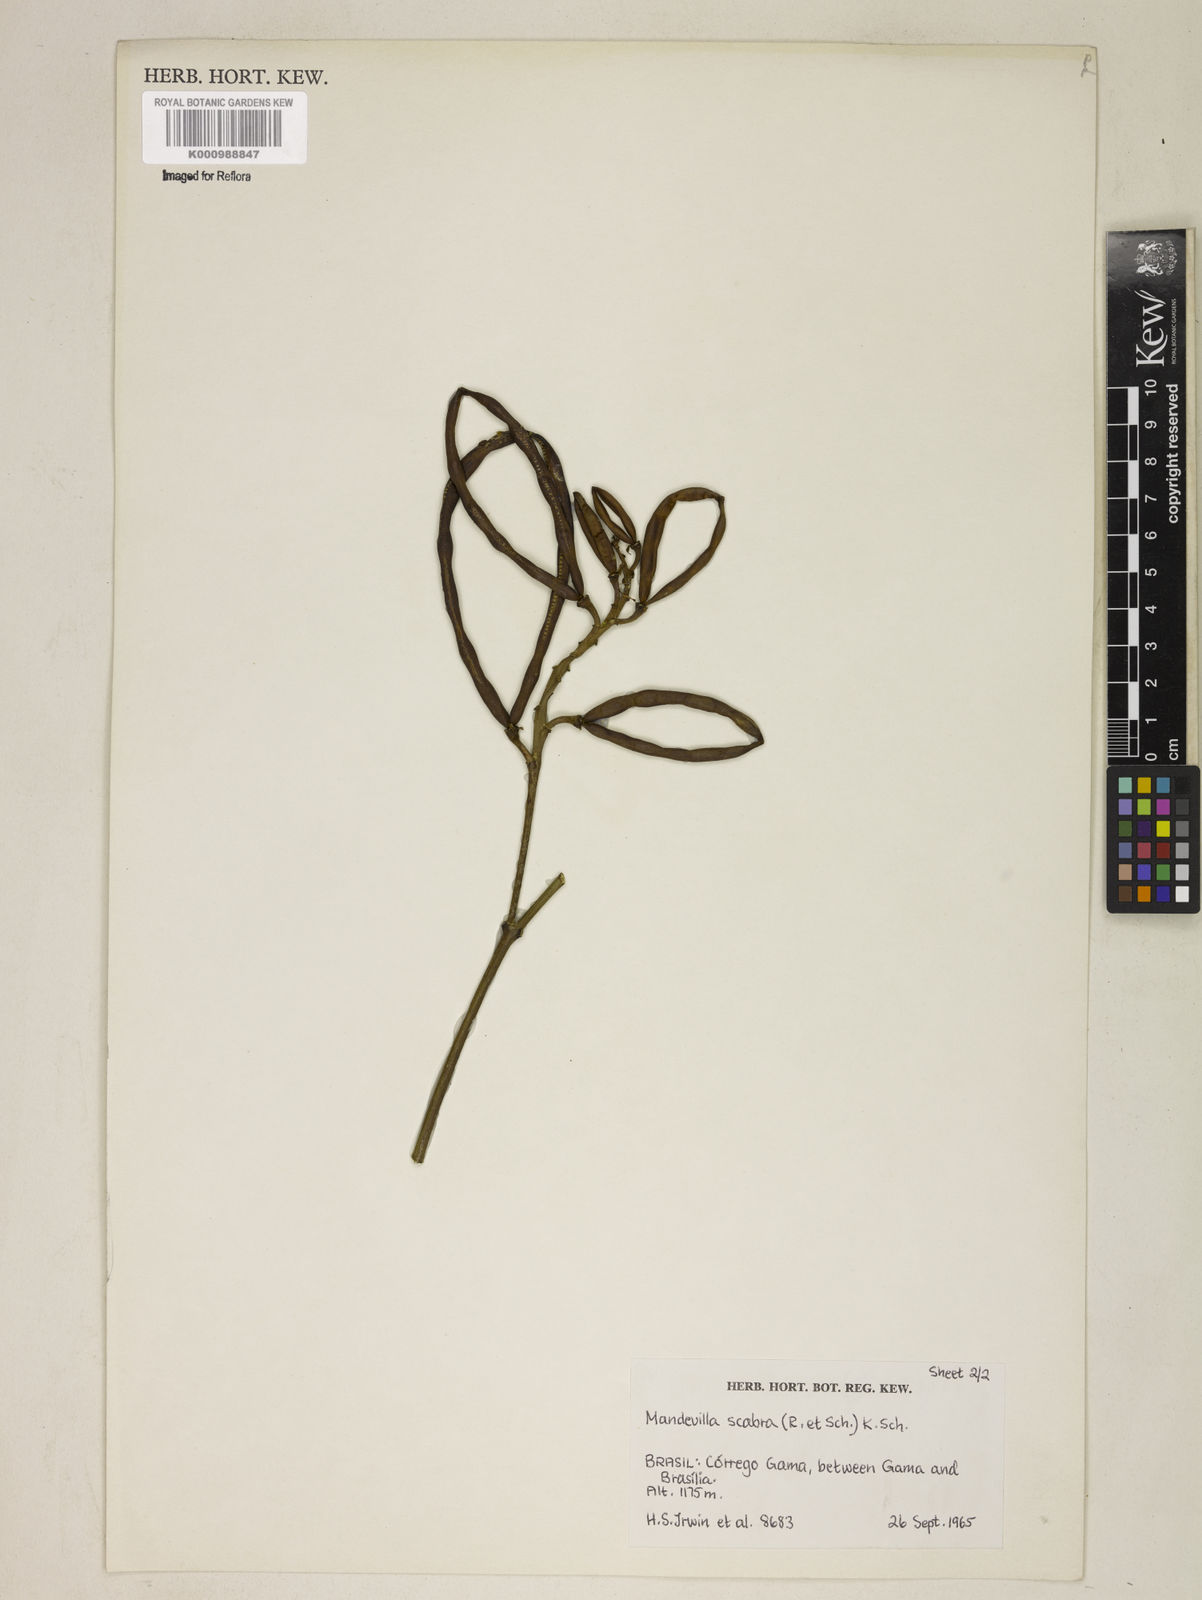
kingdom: Plantae
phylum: Tracheophyta
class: Magnoliopsida
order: Gentianales
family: Apocynaceae
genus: Mandevilla
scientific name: Mandevilla scabra
